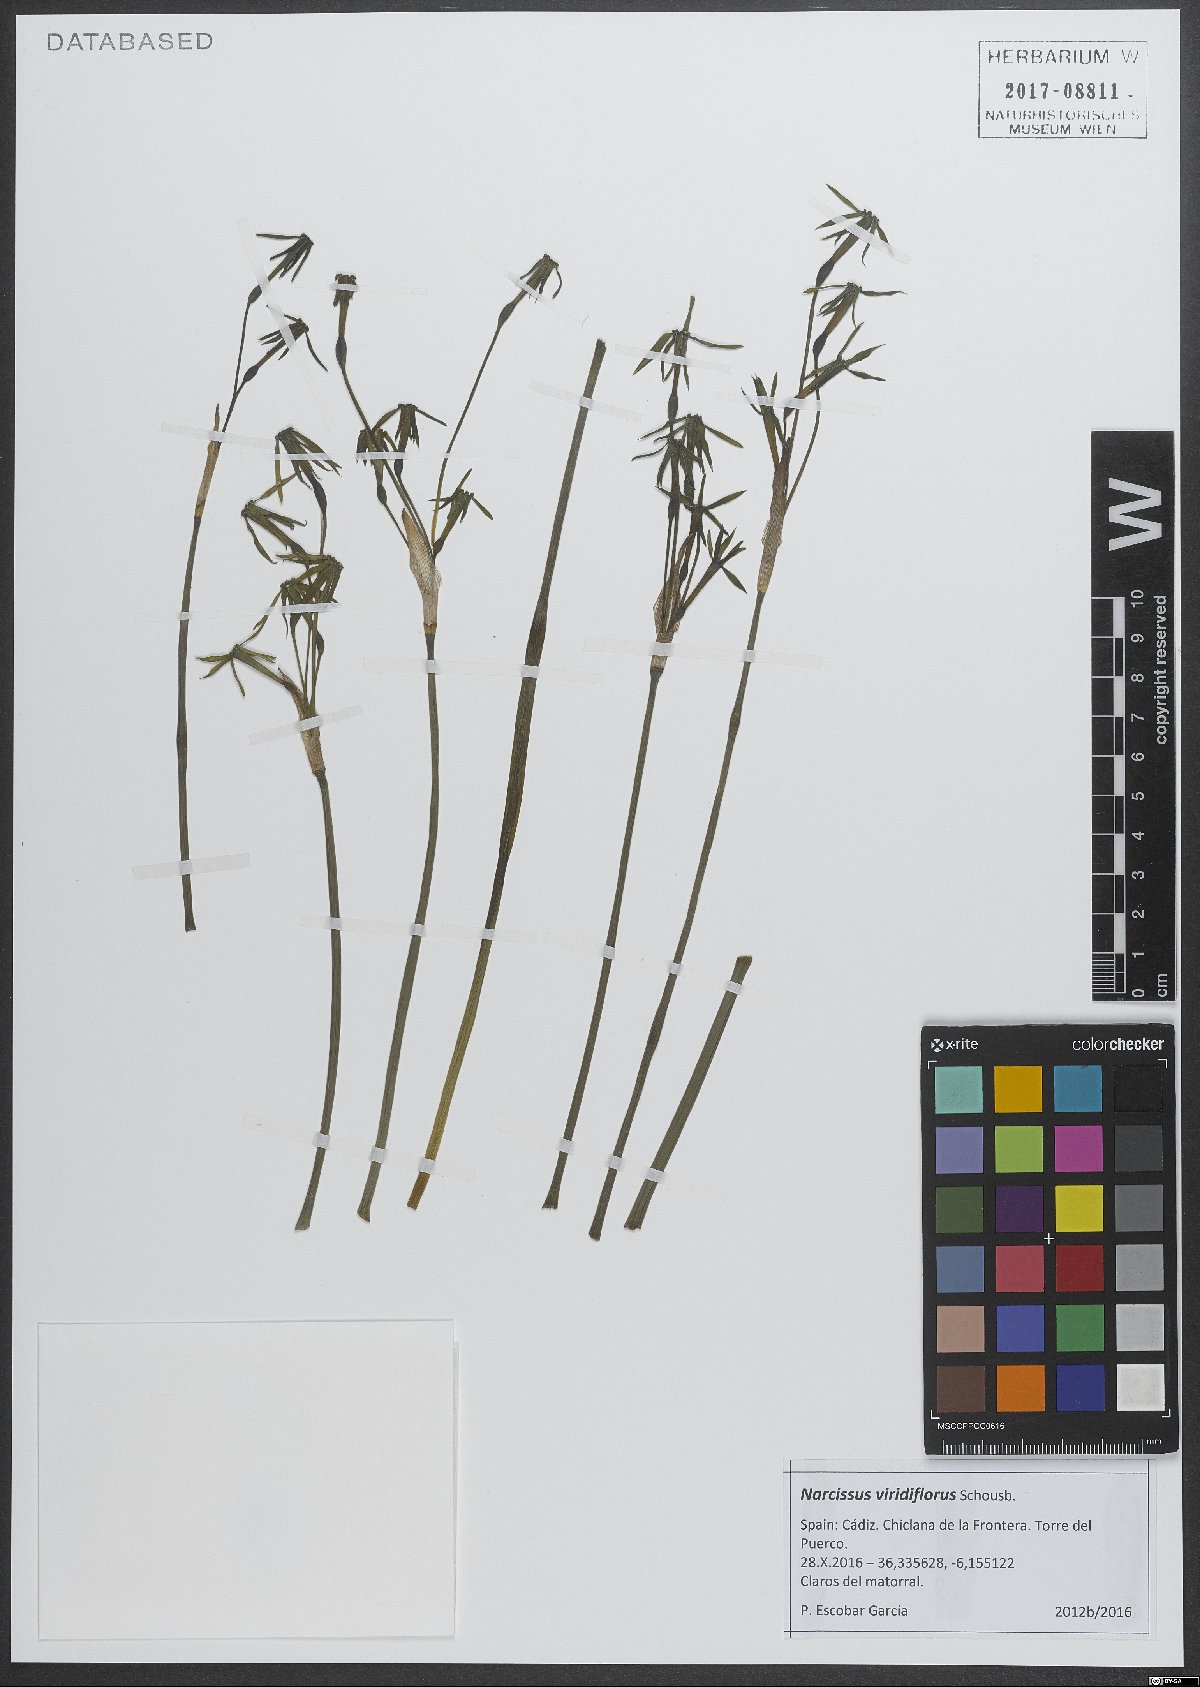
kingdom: Plantae
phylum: Tracheophyta
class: Liliopsida
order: Asparagales
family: Amaryllidaceae
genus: Narcissus
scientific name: Narcissus viridiflorus
